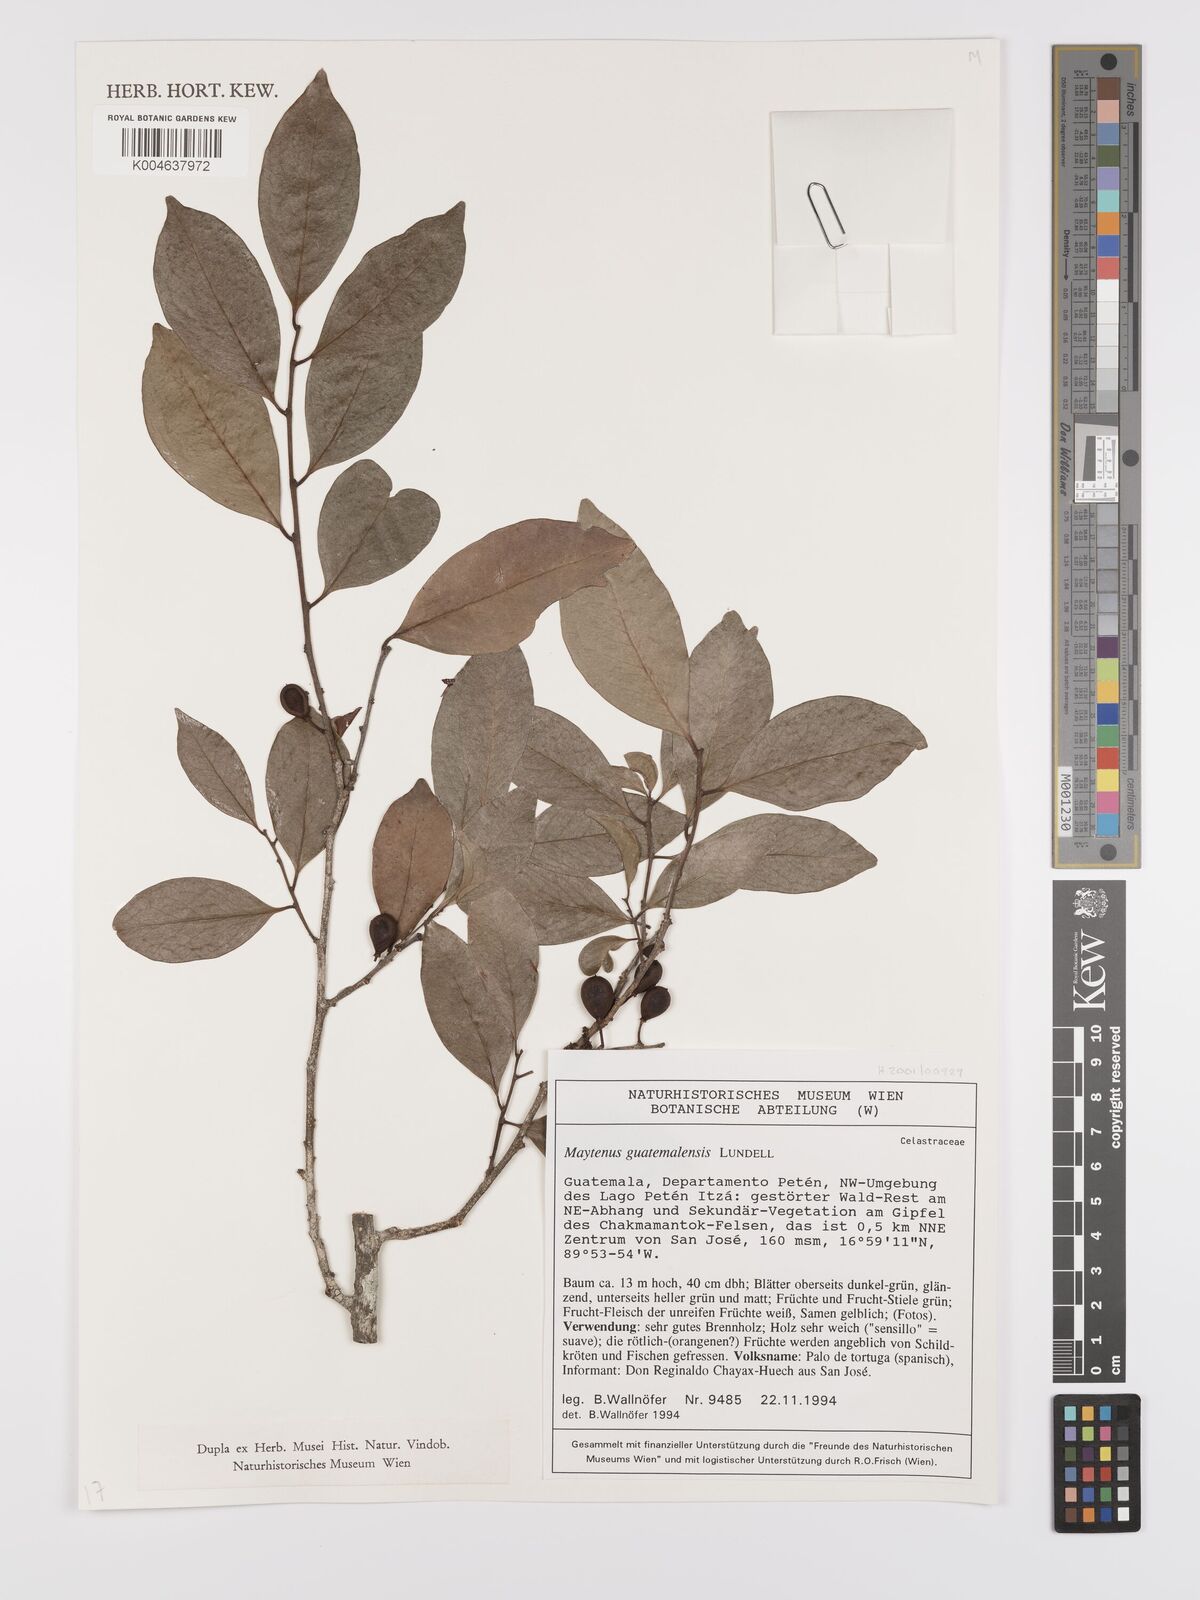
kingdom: Plantae
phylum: Tracheophyta
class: Magnoliopsida
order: Celastrales
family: Celastraceae
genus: Maytenus
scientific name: Maytenus guatemalensis
